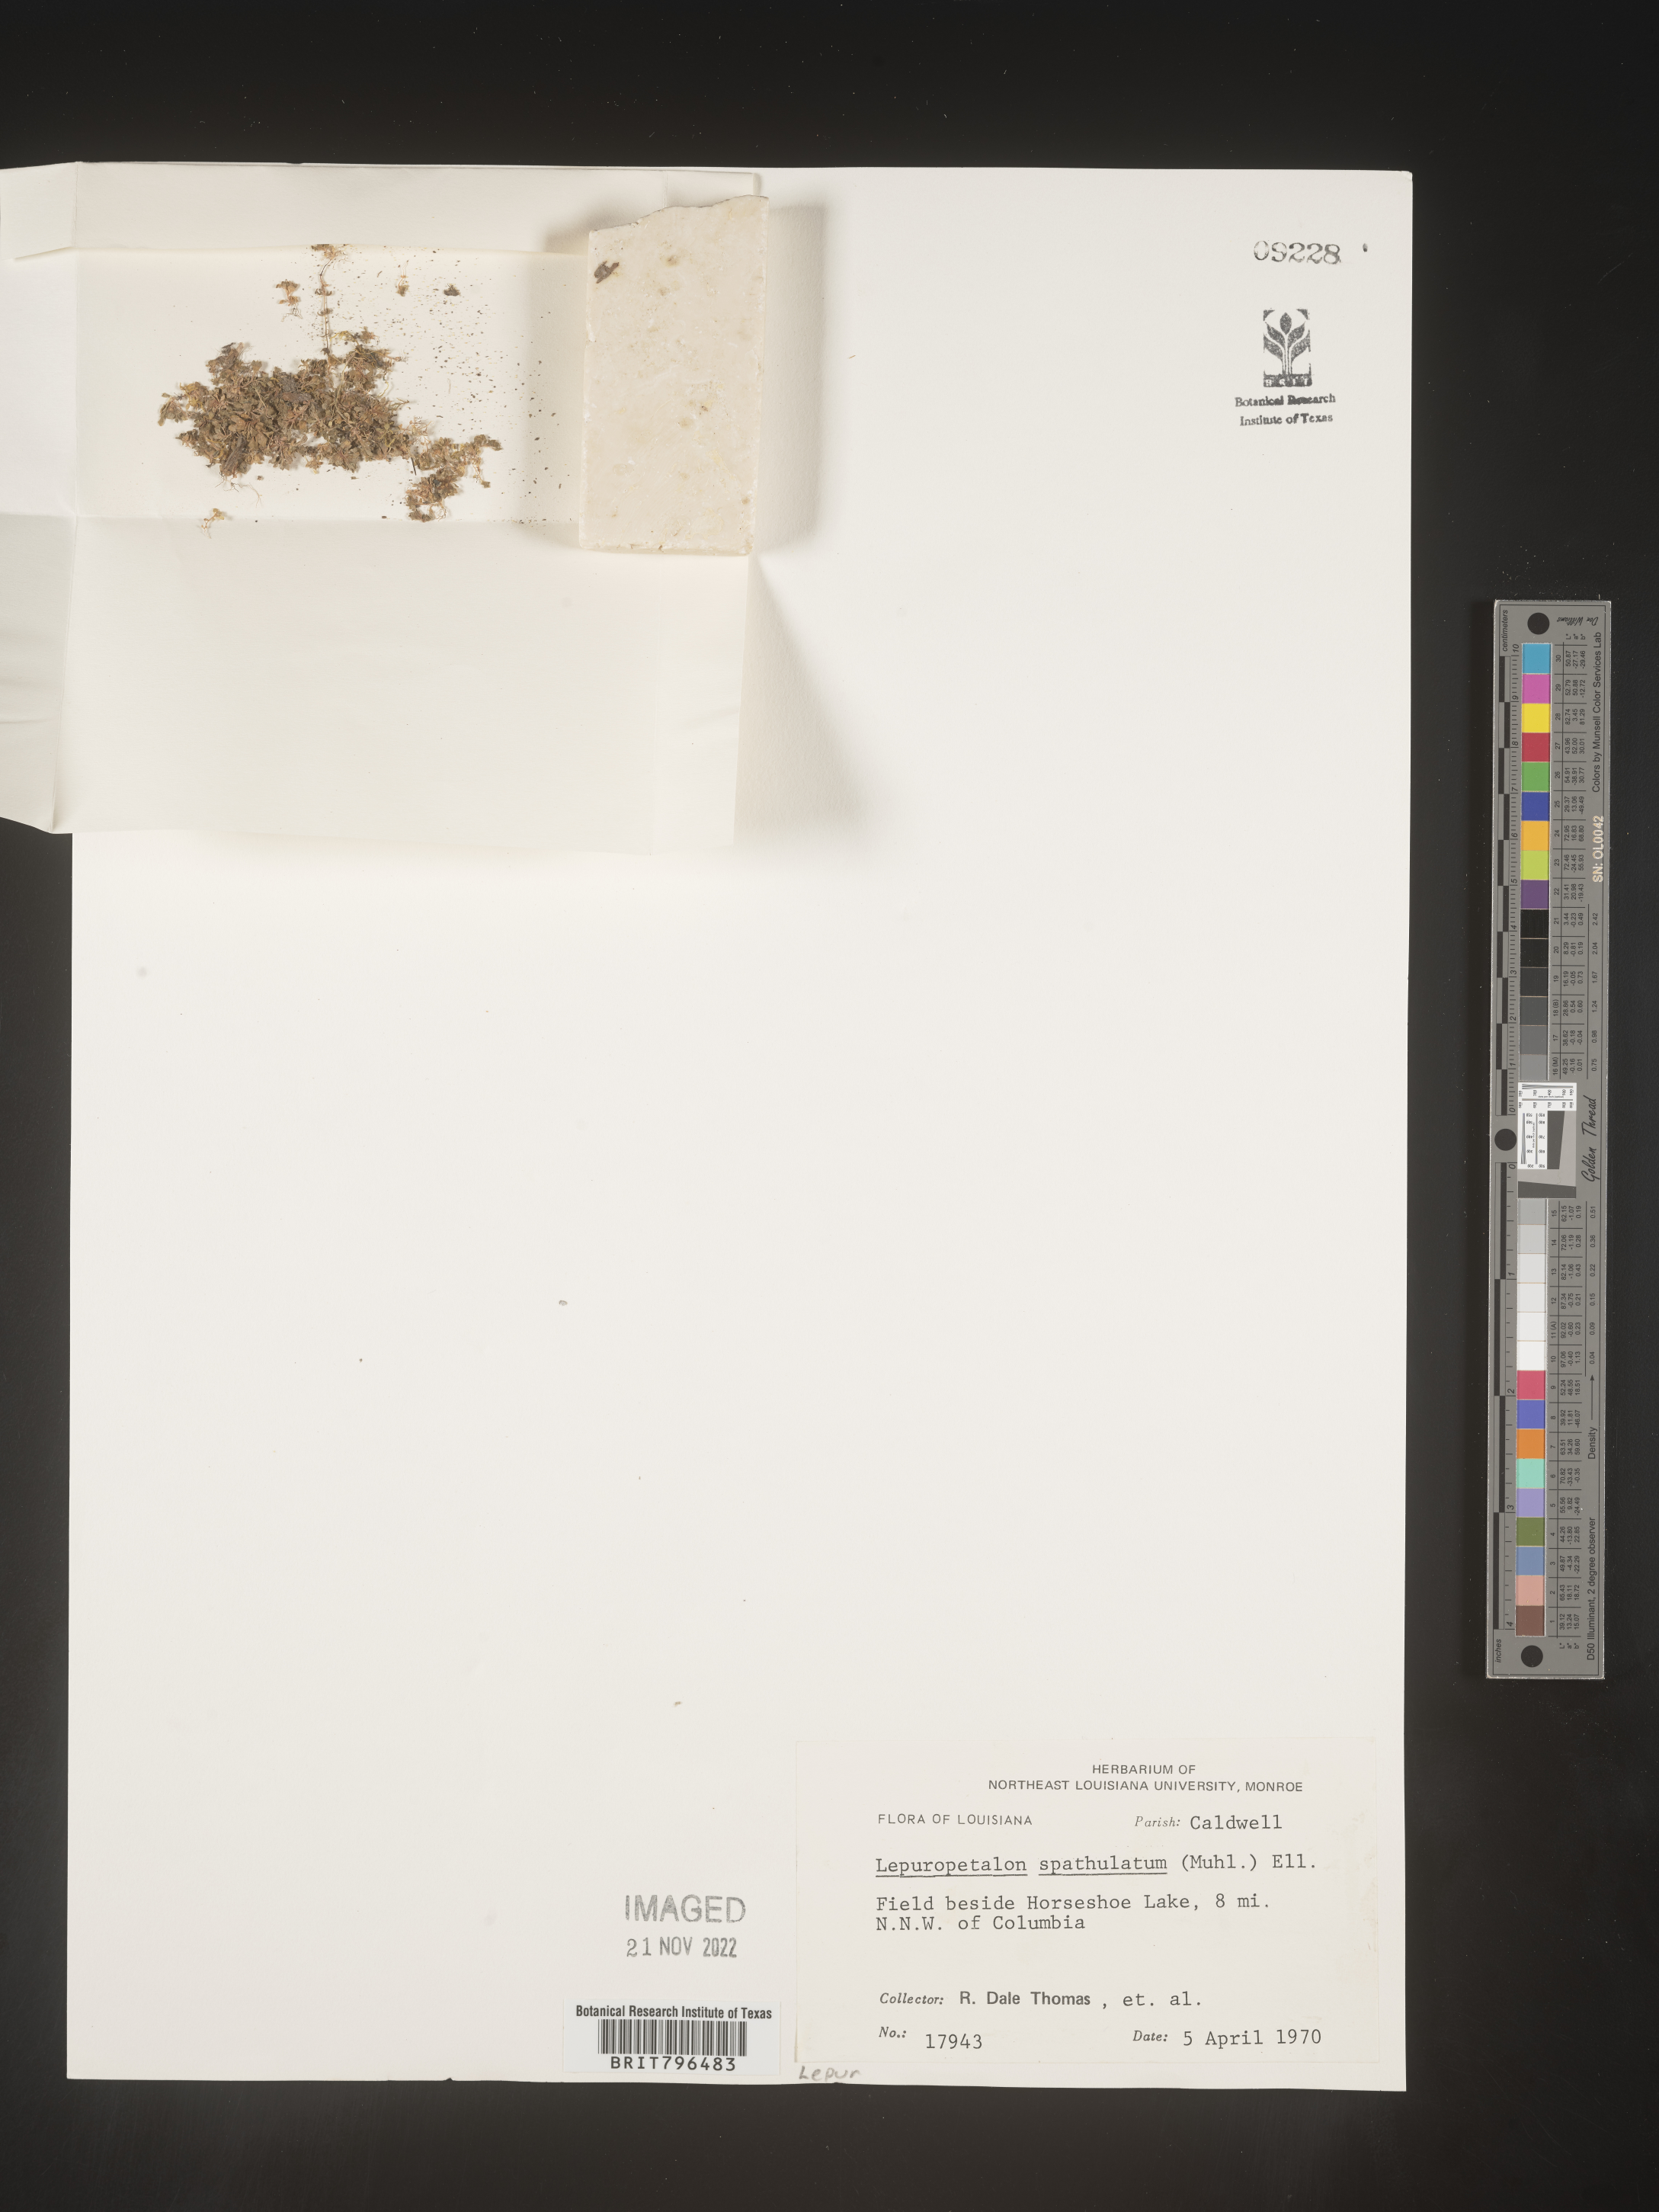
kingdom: Plantae
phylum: Tracheophyta
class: Magnoliopsida
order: Celastrales
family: Parnassiaceae
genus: Lepuropetalon
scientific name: Lepuropetalon
